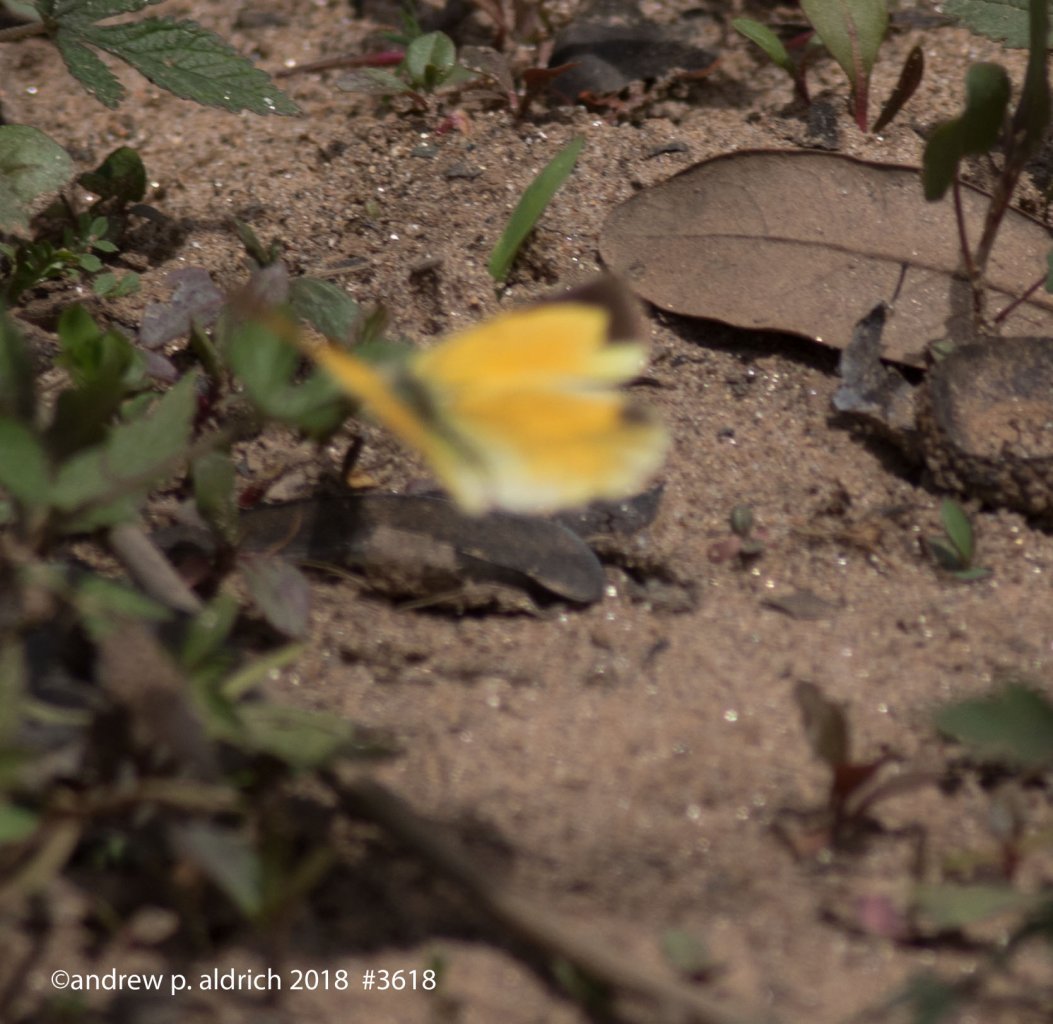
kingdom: Animalia
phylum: Arthropoda
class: Insecta
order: Lepidoptera
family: Pieridae
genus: Colias
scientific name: Colias eurytheme
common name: Orange Sulphur
